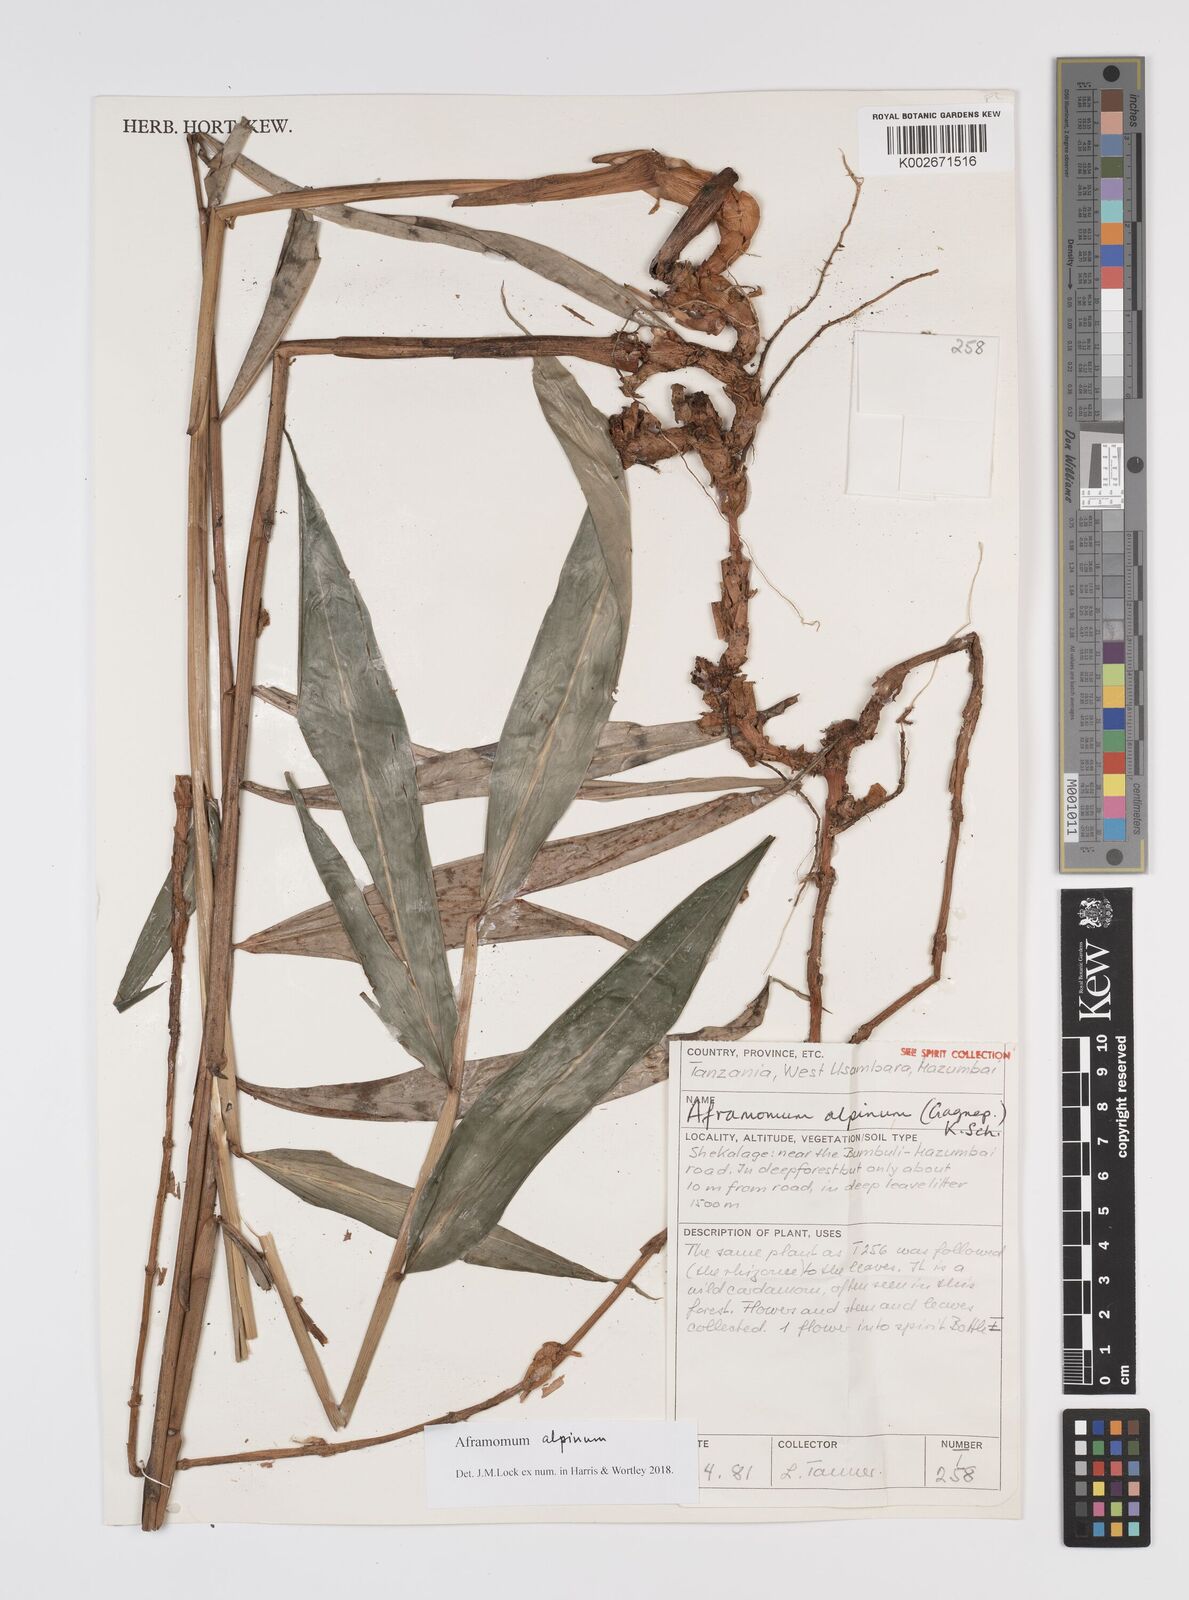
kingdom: Plantae
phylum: Tracheophyta
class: Liliopsida
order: Zingiberales
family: Zingiberaceae
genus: Aframomum
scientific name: Aframomum alpinum
